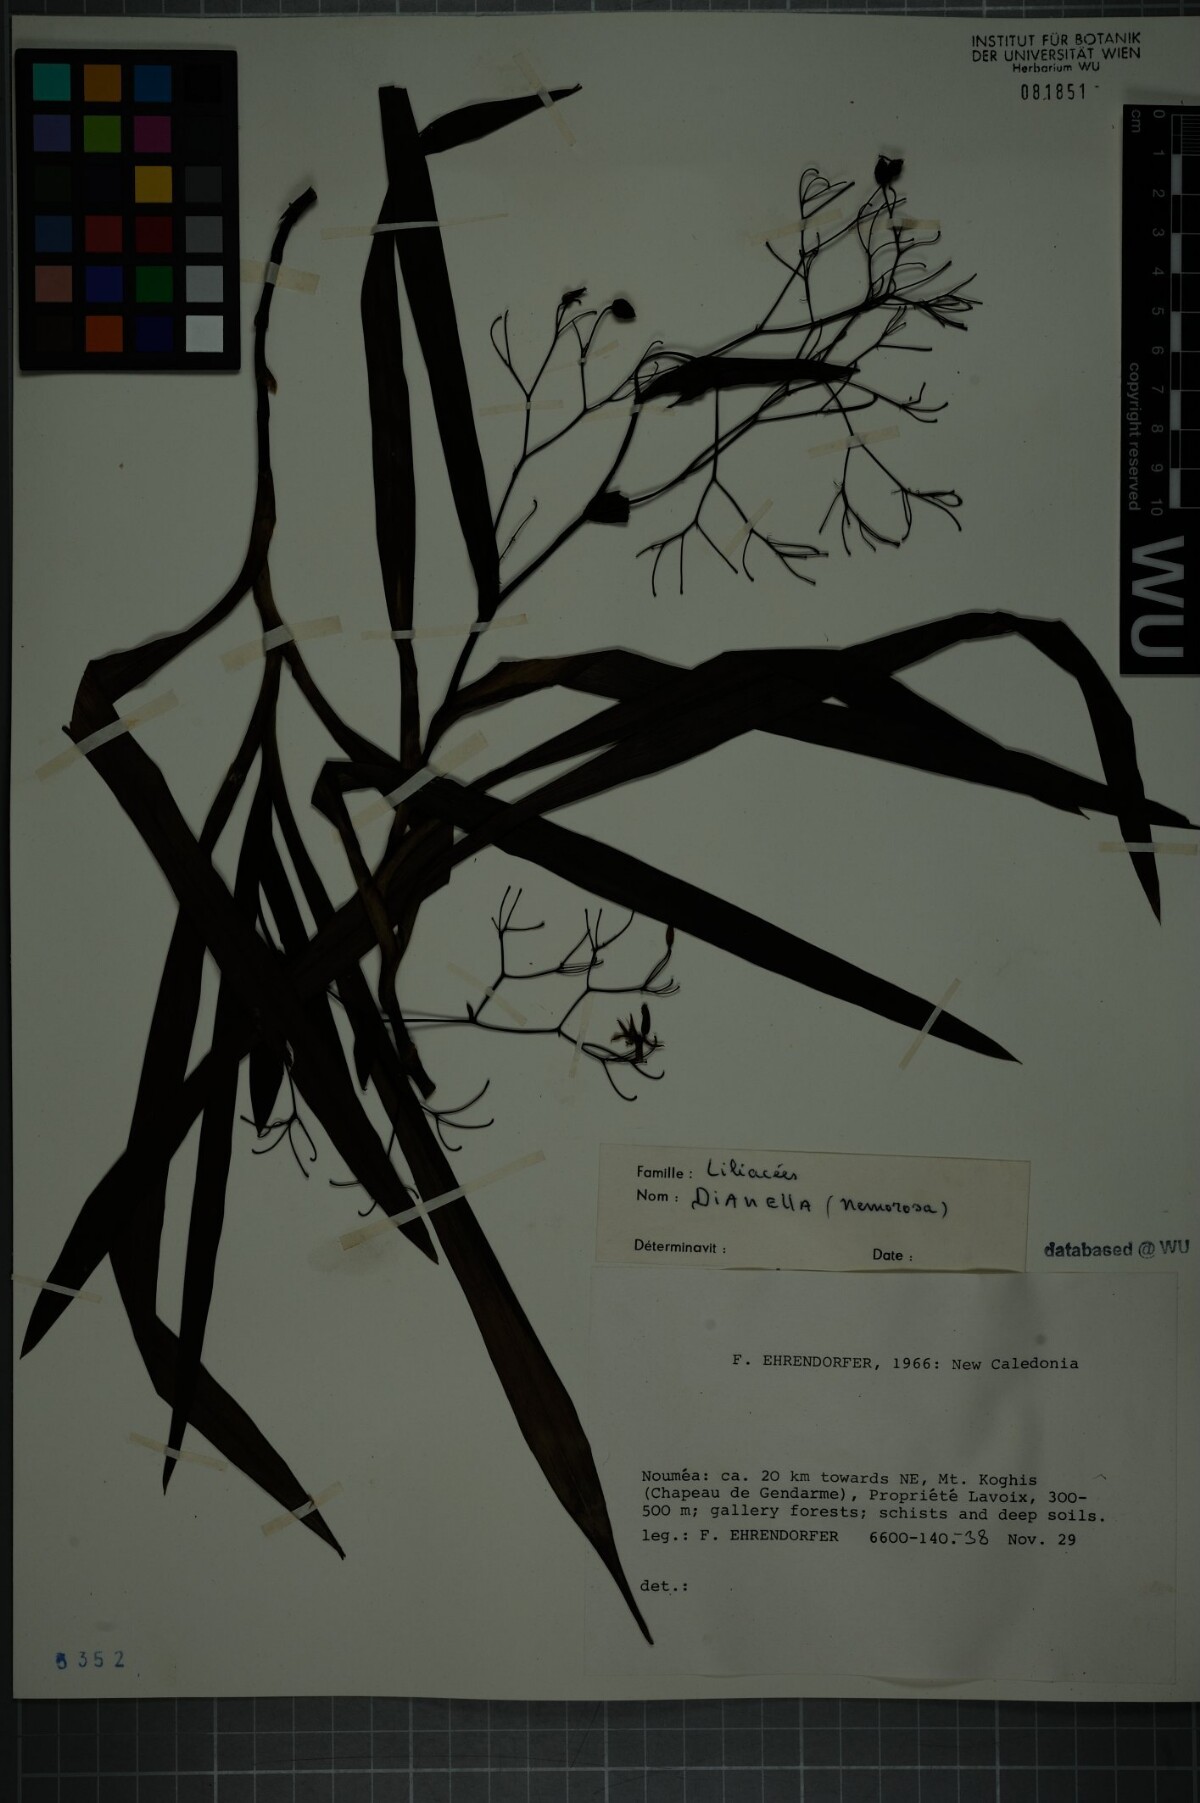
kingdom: Plantae
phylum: Tracheophyta
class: Liliopsida
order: Asparagales
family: Asphodelaceae
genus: Dianella
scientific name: Dianella ensifolia
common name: New zealand lilyplant
